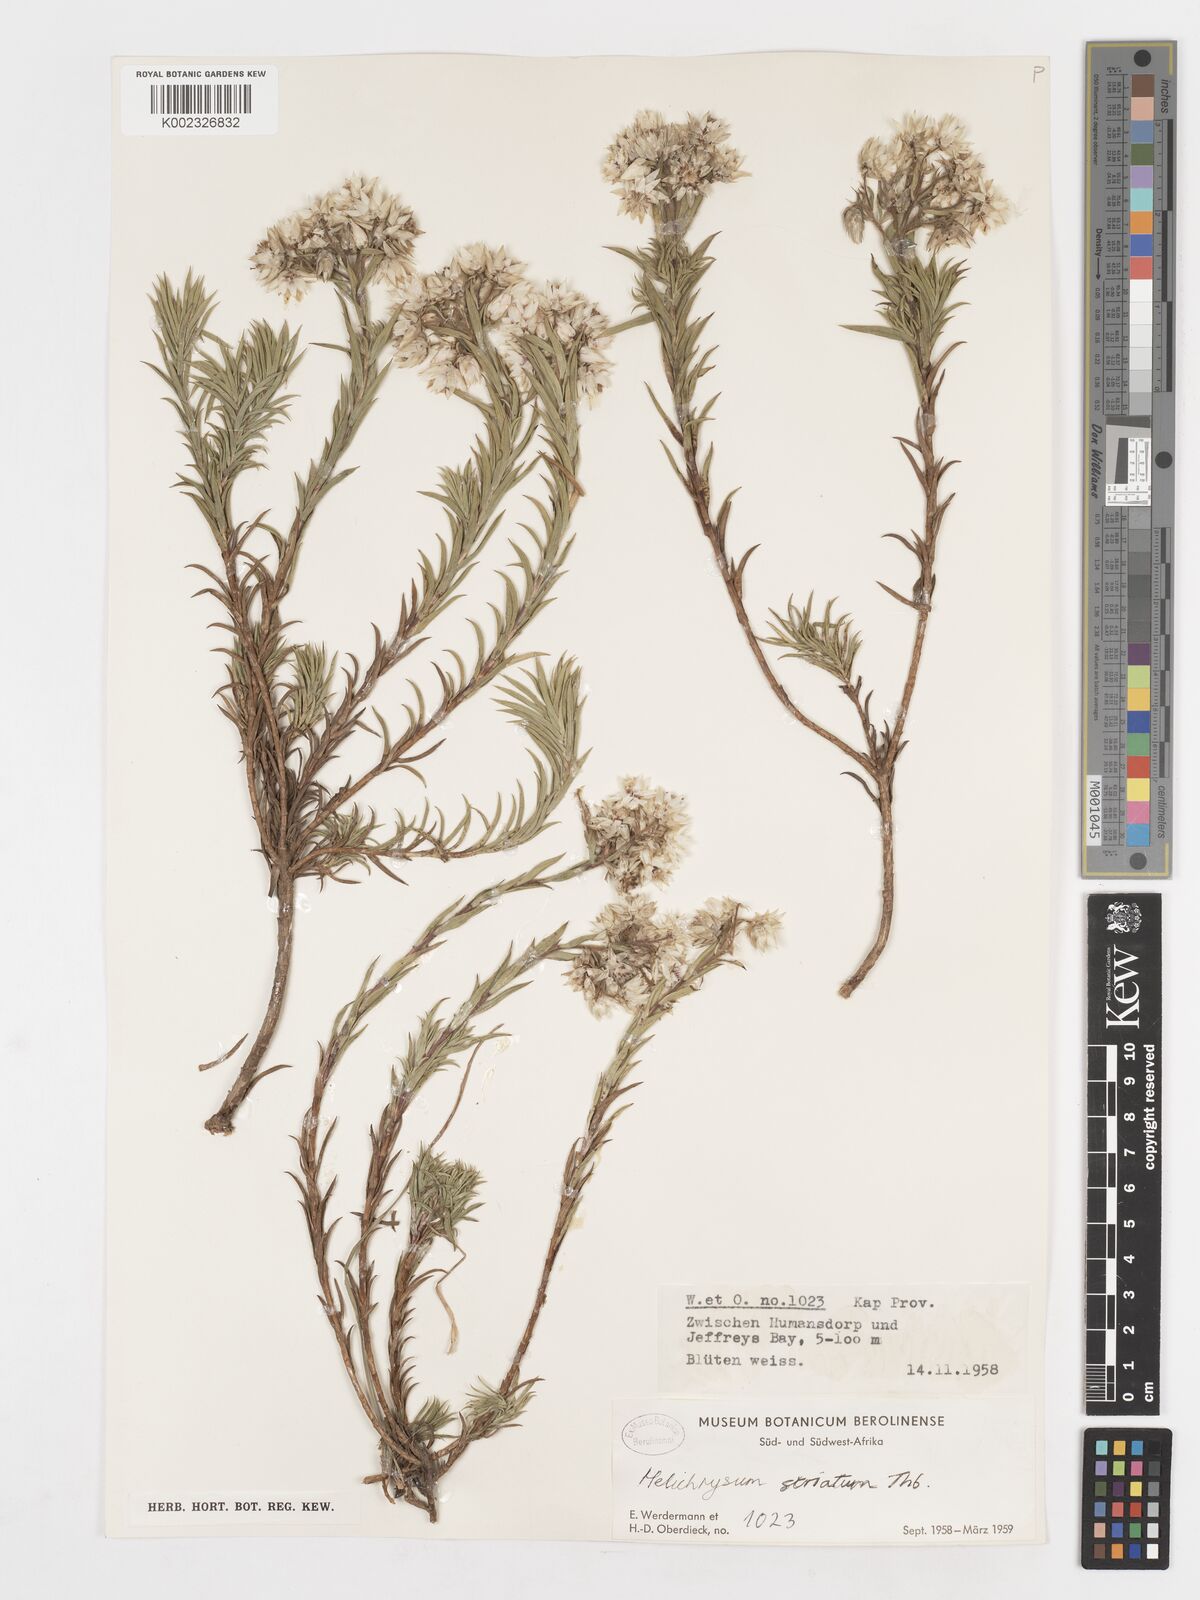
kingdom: Plantae
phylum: Tracheophyta
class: Magnoliopsida
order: Asterales
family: Asteraceae
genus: Achyranthemum
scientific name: Achyranthemum striatum
